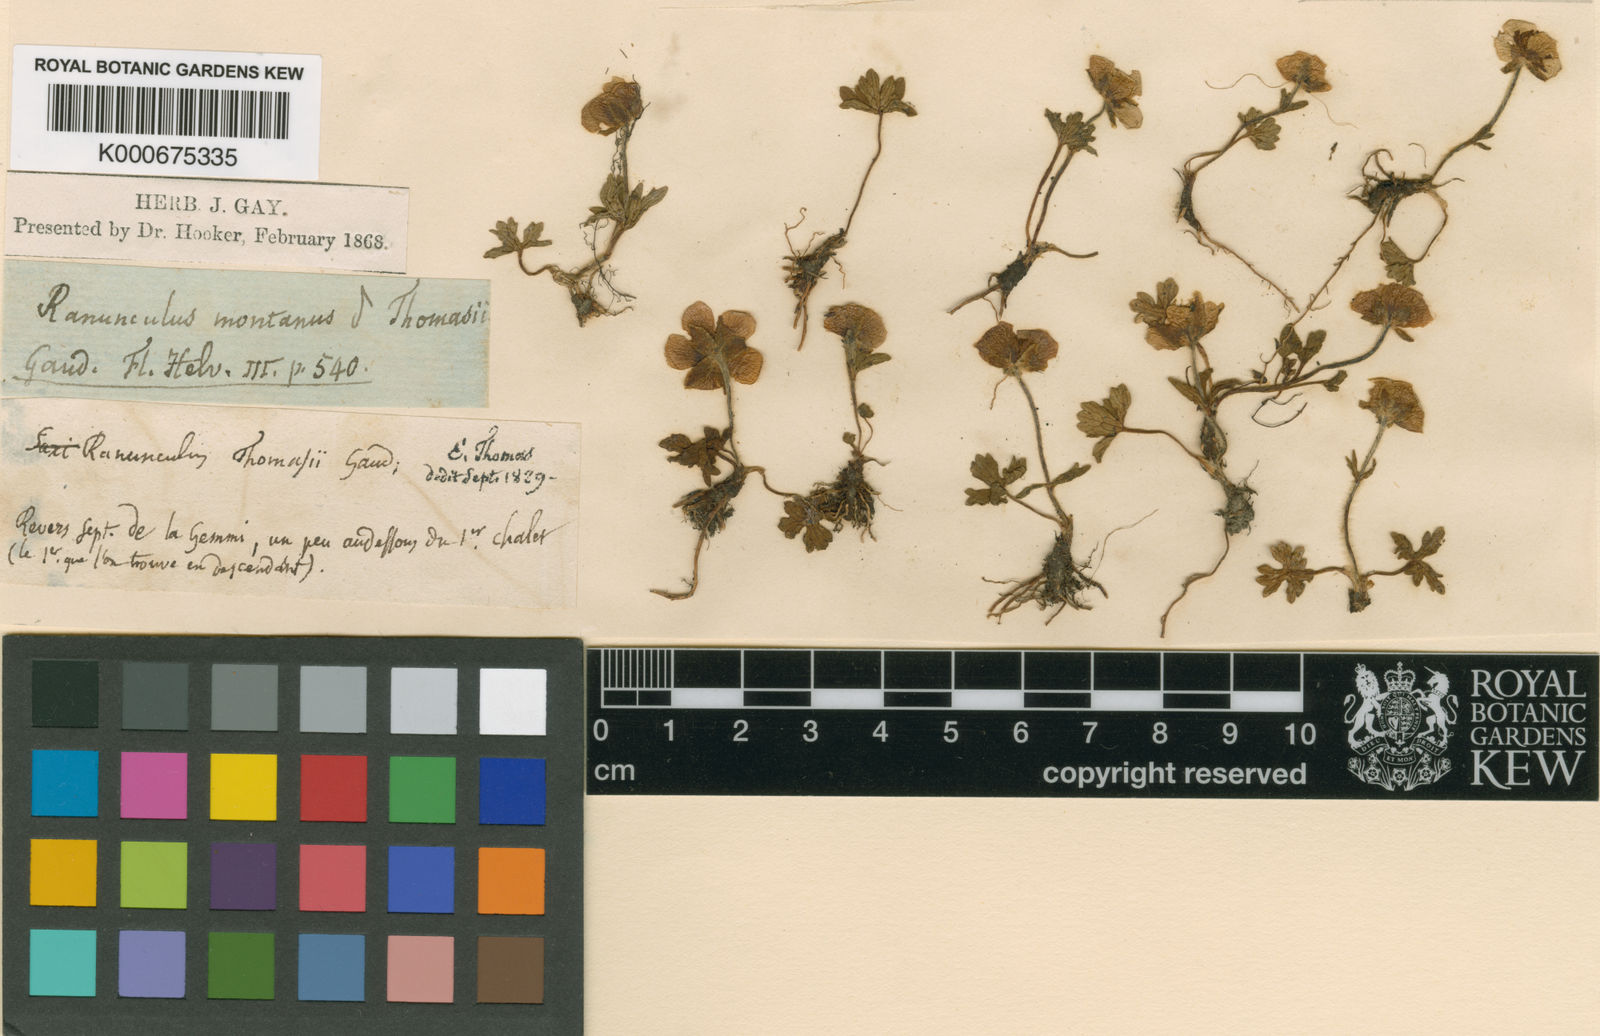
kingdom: Plantae
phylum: Tracheophyta
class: Magnoliopsida
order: Ranunculales
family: Ranunculaceae
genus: Ranunculus
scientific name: Ranunculus montanus
